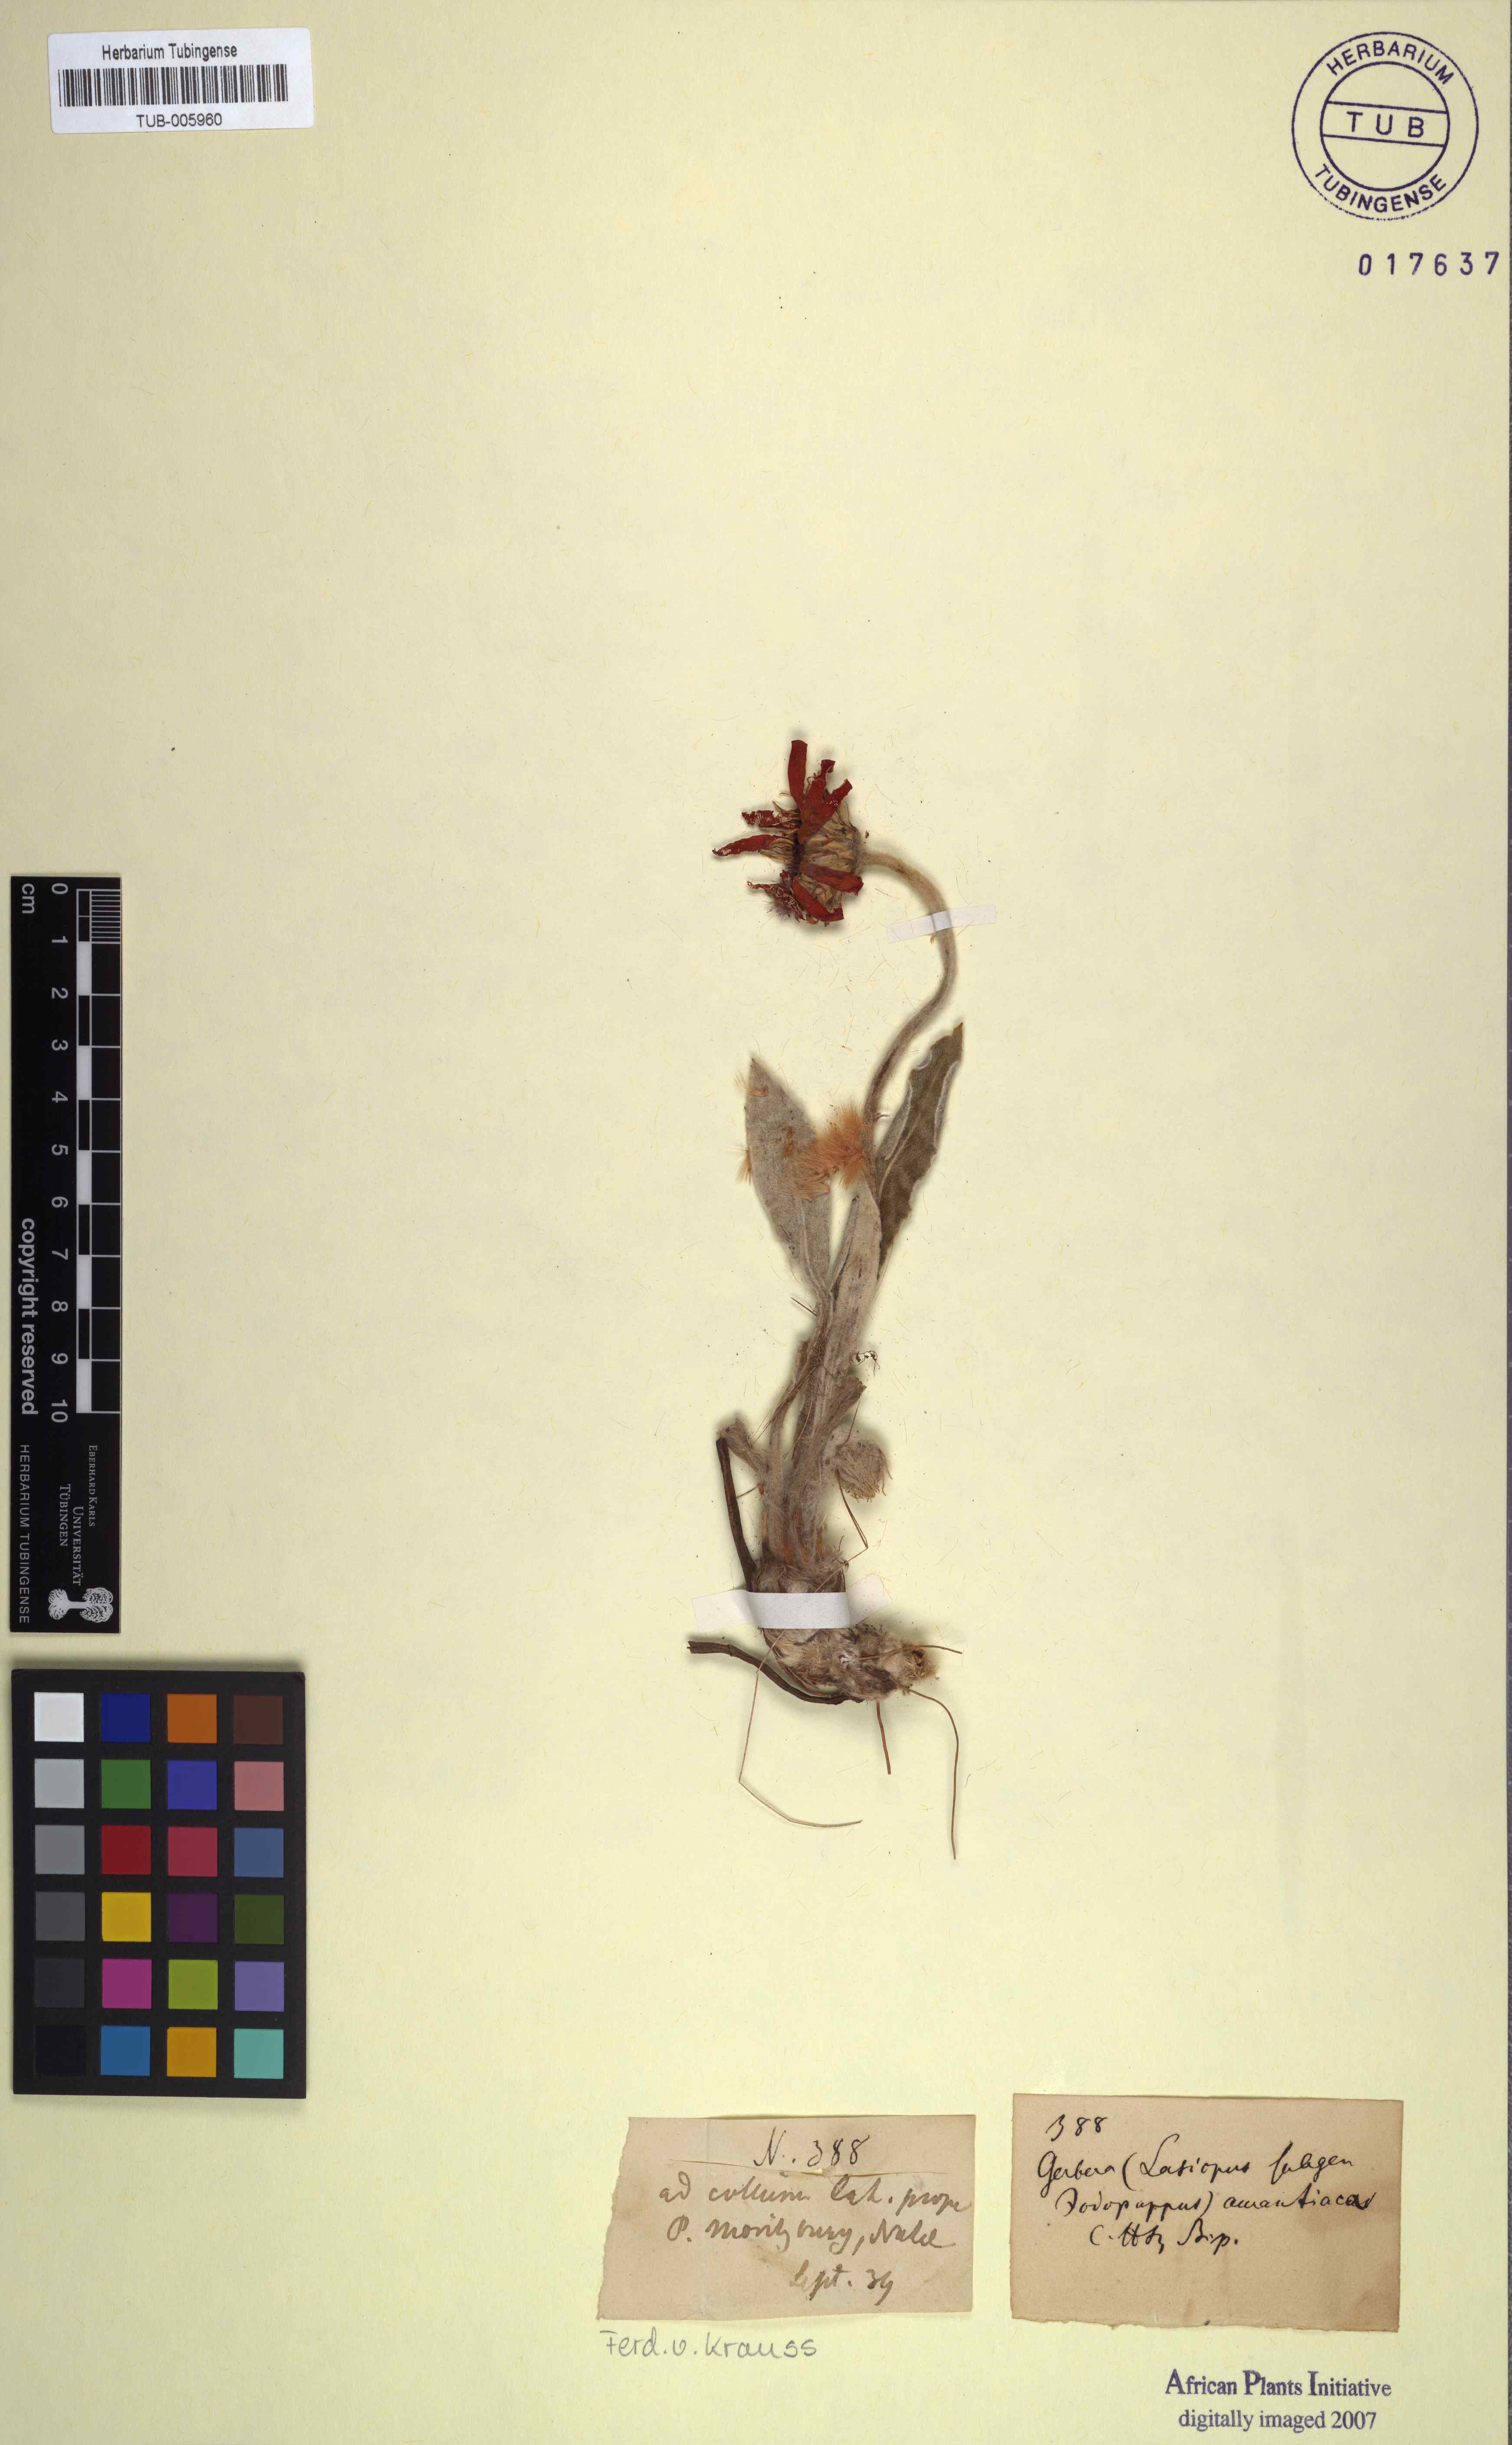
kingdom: Plantae
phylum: Tracheophyta
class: Magnoliopsida
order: Asterales
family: Asteraceae
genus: Gerbera
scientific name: Gerbera aurantiaca
